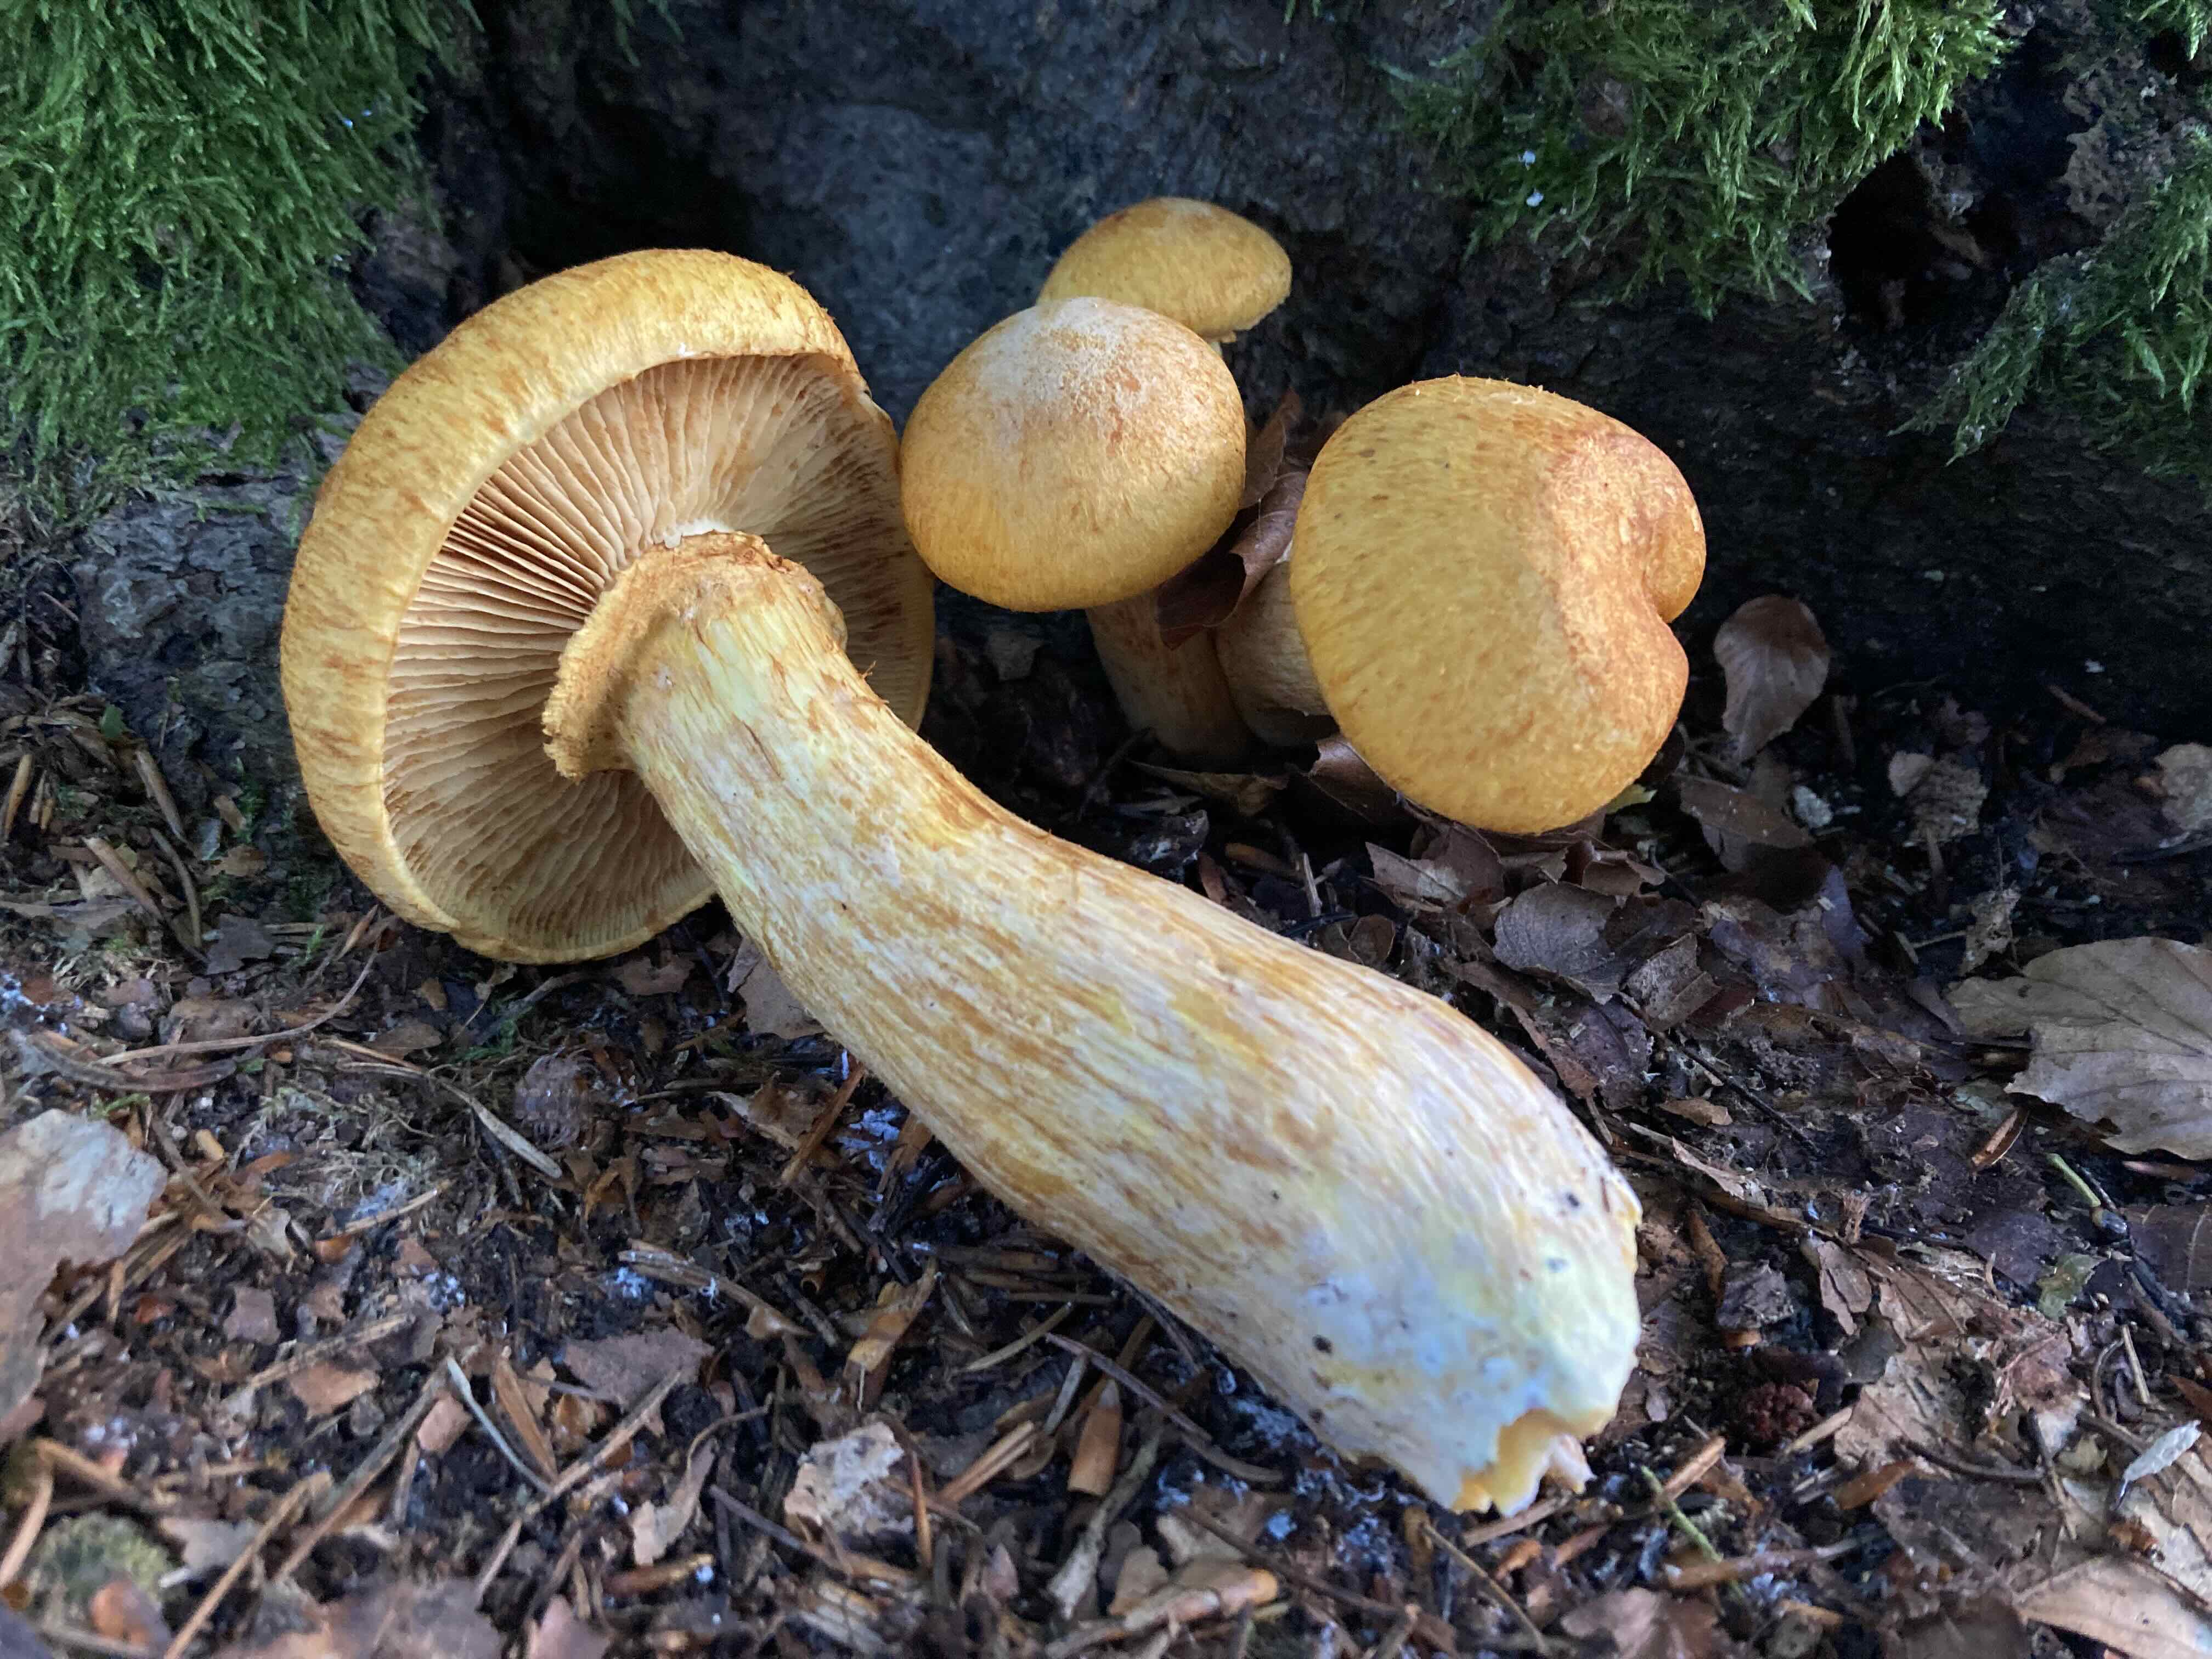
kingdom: Fungi
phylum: Basidiomycota
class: Agaricomycetes
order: Agaricales
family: Hymenogastraceae
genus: Gymnopilus
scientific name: Gymnopilus spectabilis
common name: fibret flammehat
